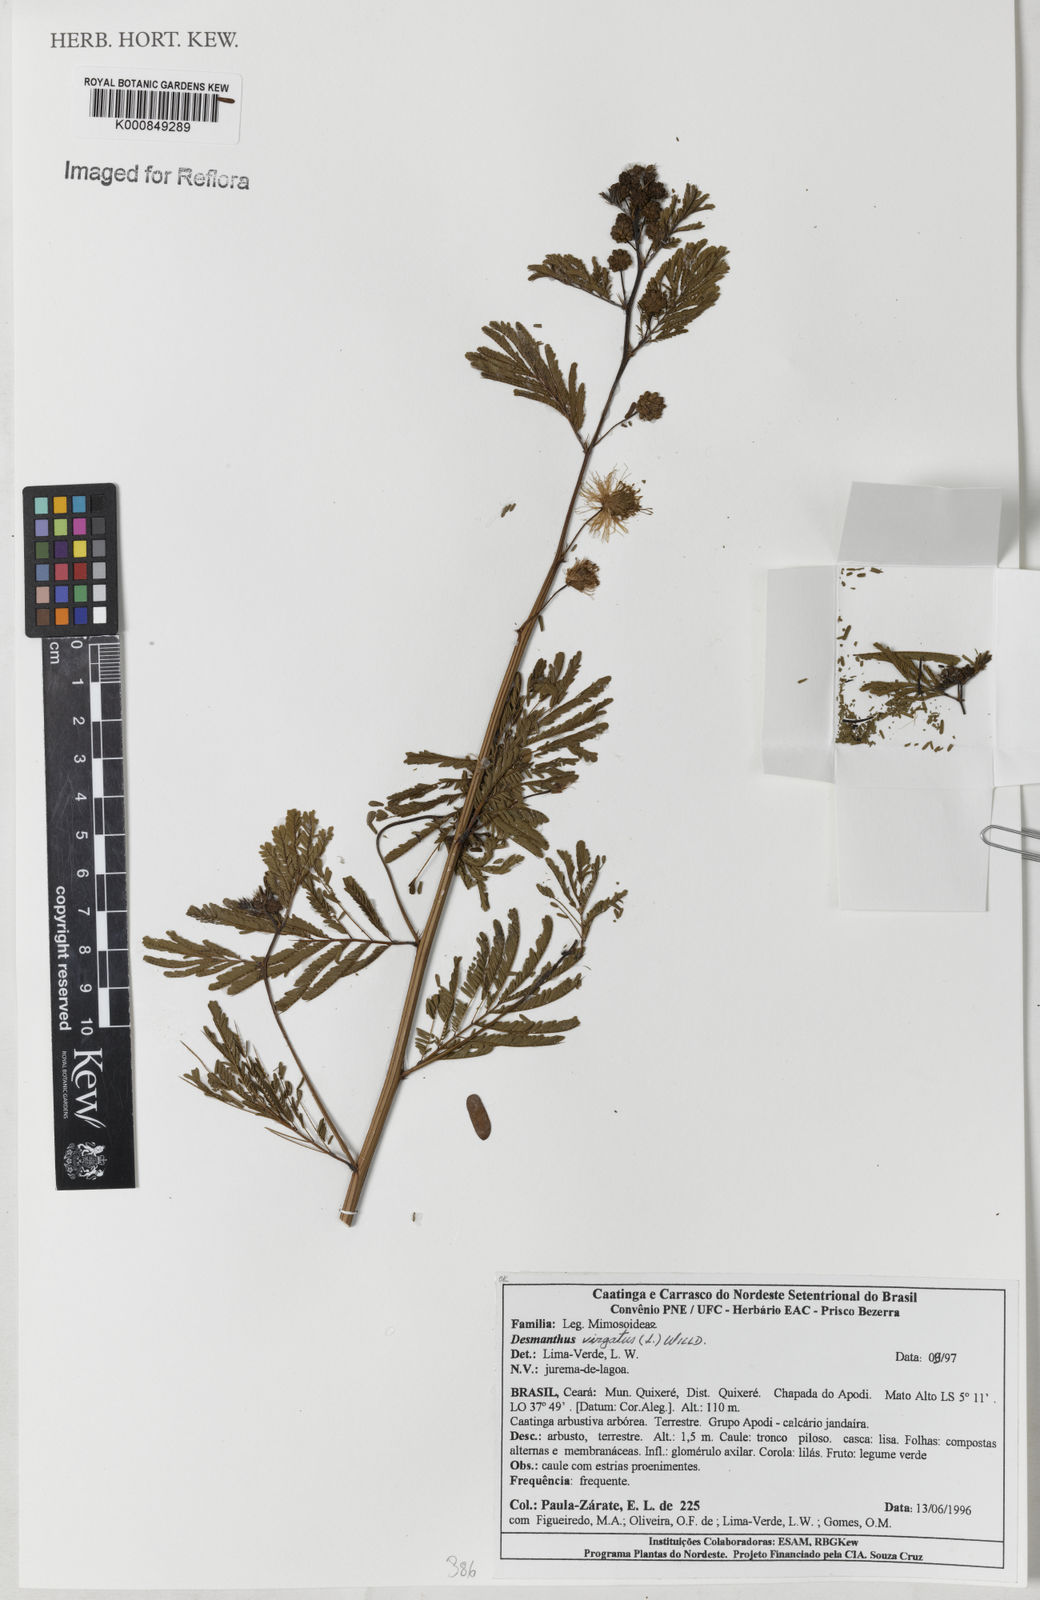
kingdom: Plantae
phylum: Tracheophyta
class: Magnoliopsida
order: Fabales
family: Fabaceae
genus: Desmanthus
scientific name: Desmanthus virgatus
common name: Wild tantan
